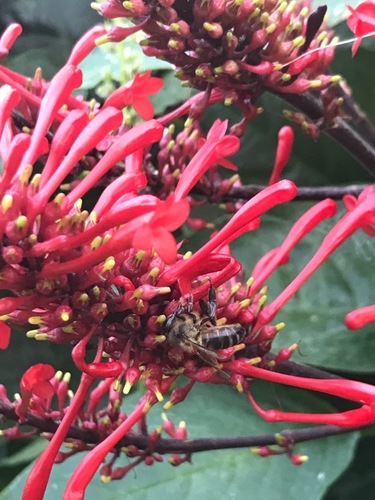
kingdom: Animalia
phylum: Arthropoda
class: Insecta
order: Hymenoptera
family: Apidae
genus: Apis
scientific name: Apis mellifera
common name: Honey bee
